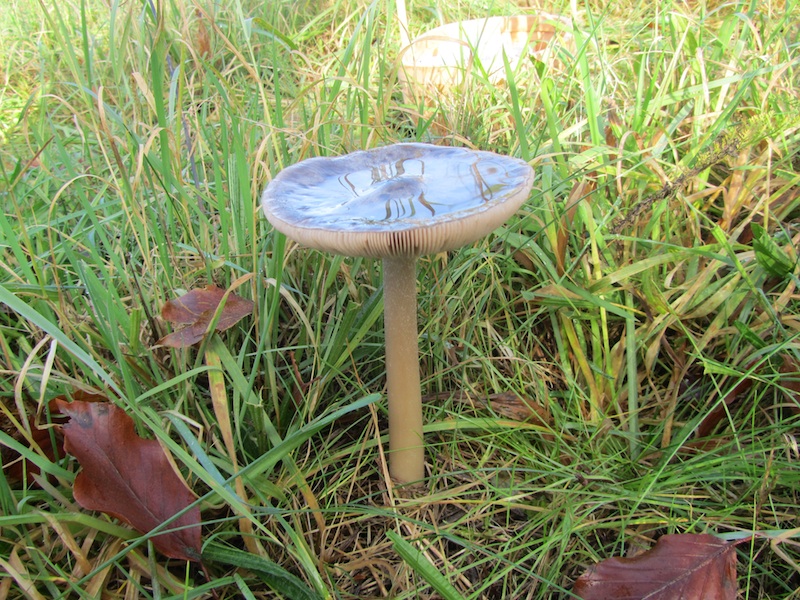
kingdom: Fungi
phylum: Basidiomycota
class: Agaricomycetes
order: Agaricales
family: Pluteaceae
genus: Volvopluteus
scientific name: Volvopluteus gloiocephalus
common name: høj posesvamp
